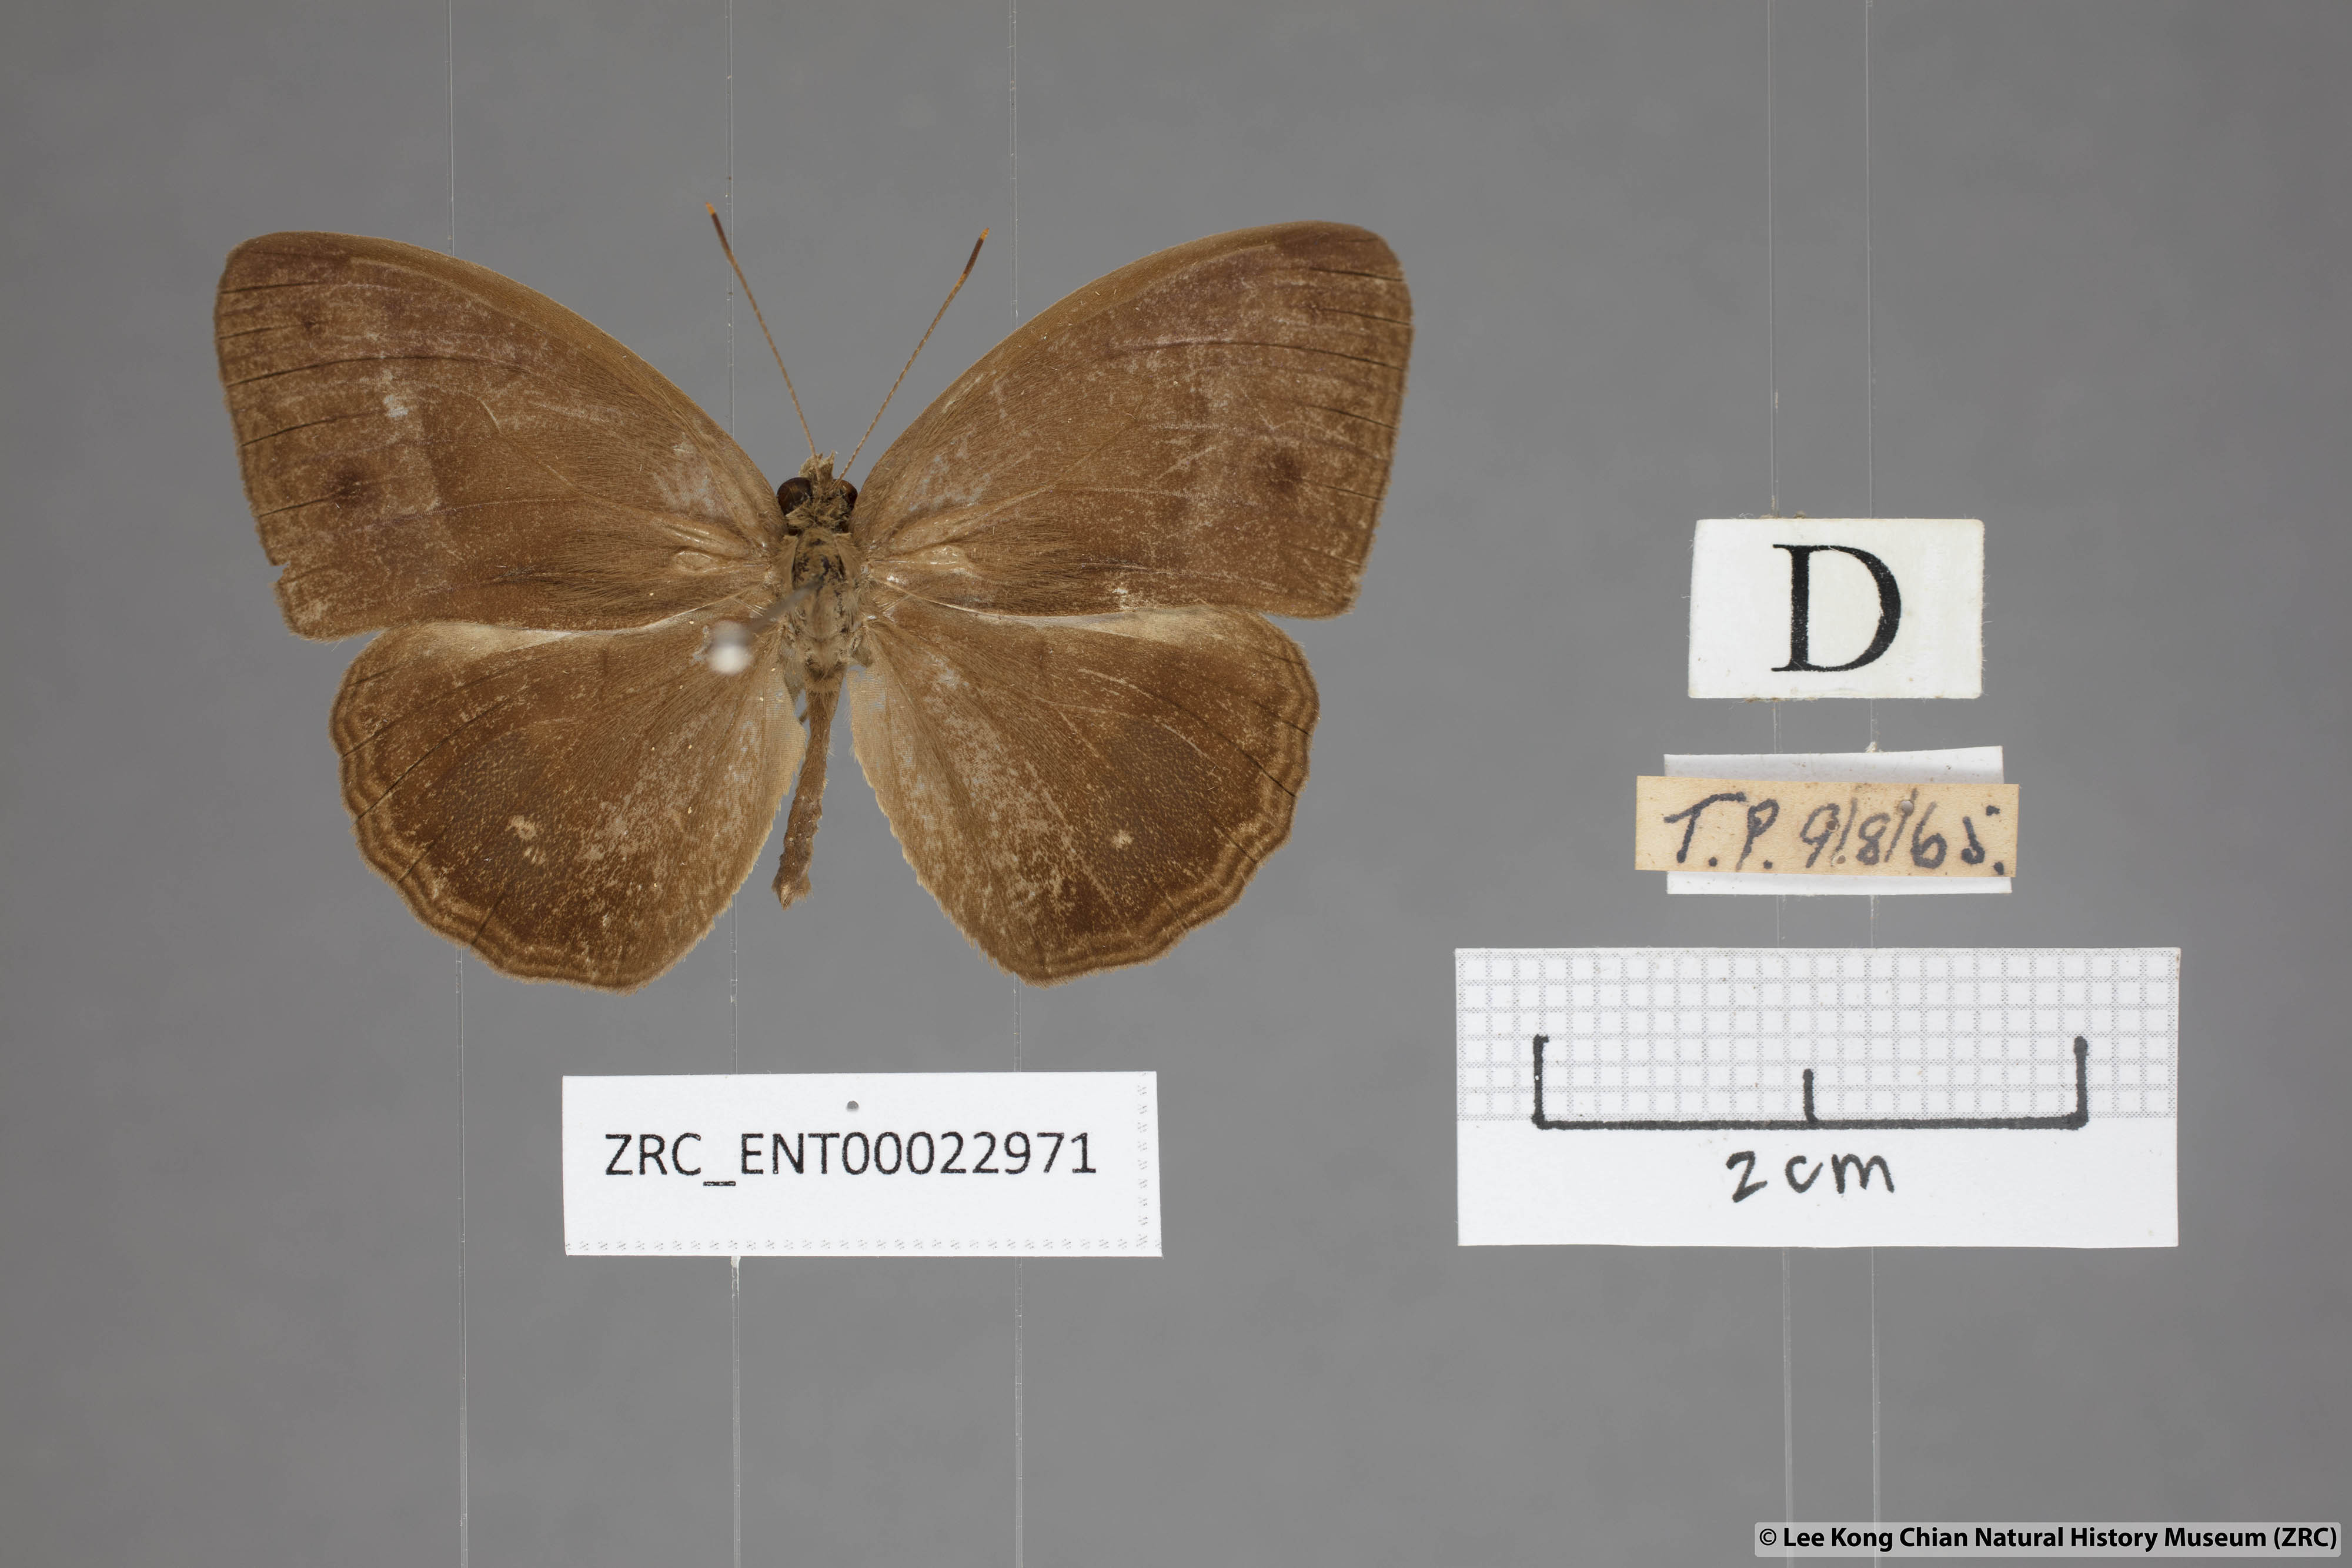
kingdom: Animalia
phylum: Arthropoda
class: Insecta
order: Lepidoptera
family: Nymphalidae
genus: Mycalesis
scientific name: Mycalesis orseis
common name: Purple bushbrown
